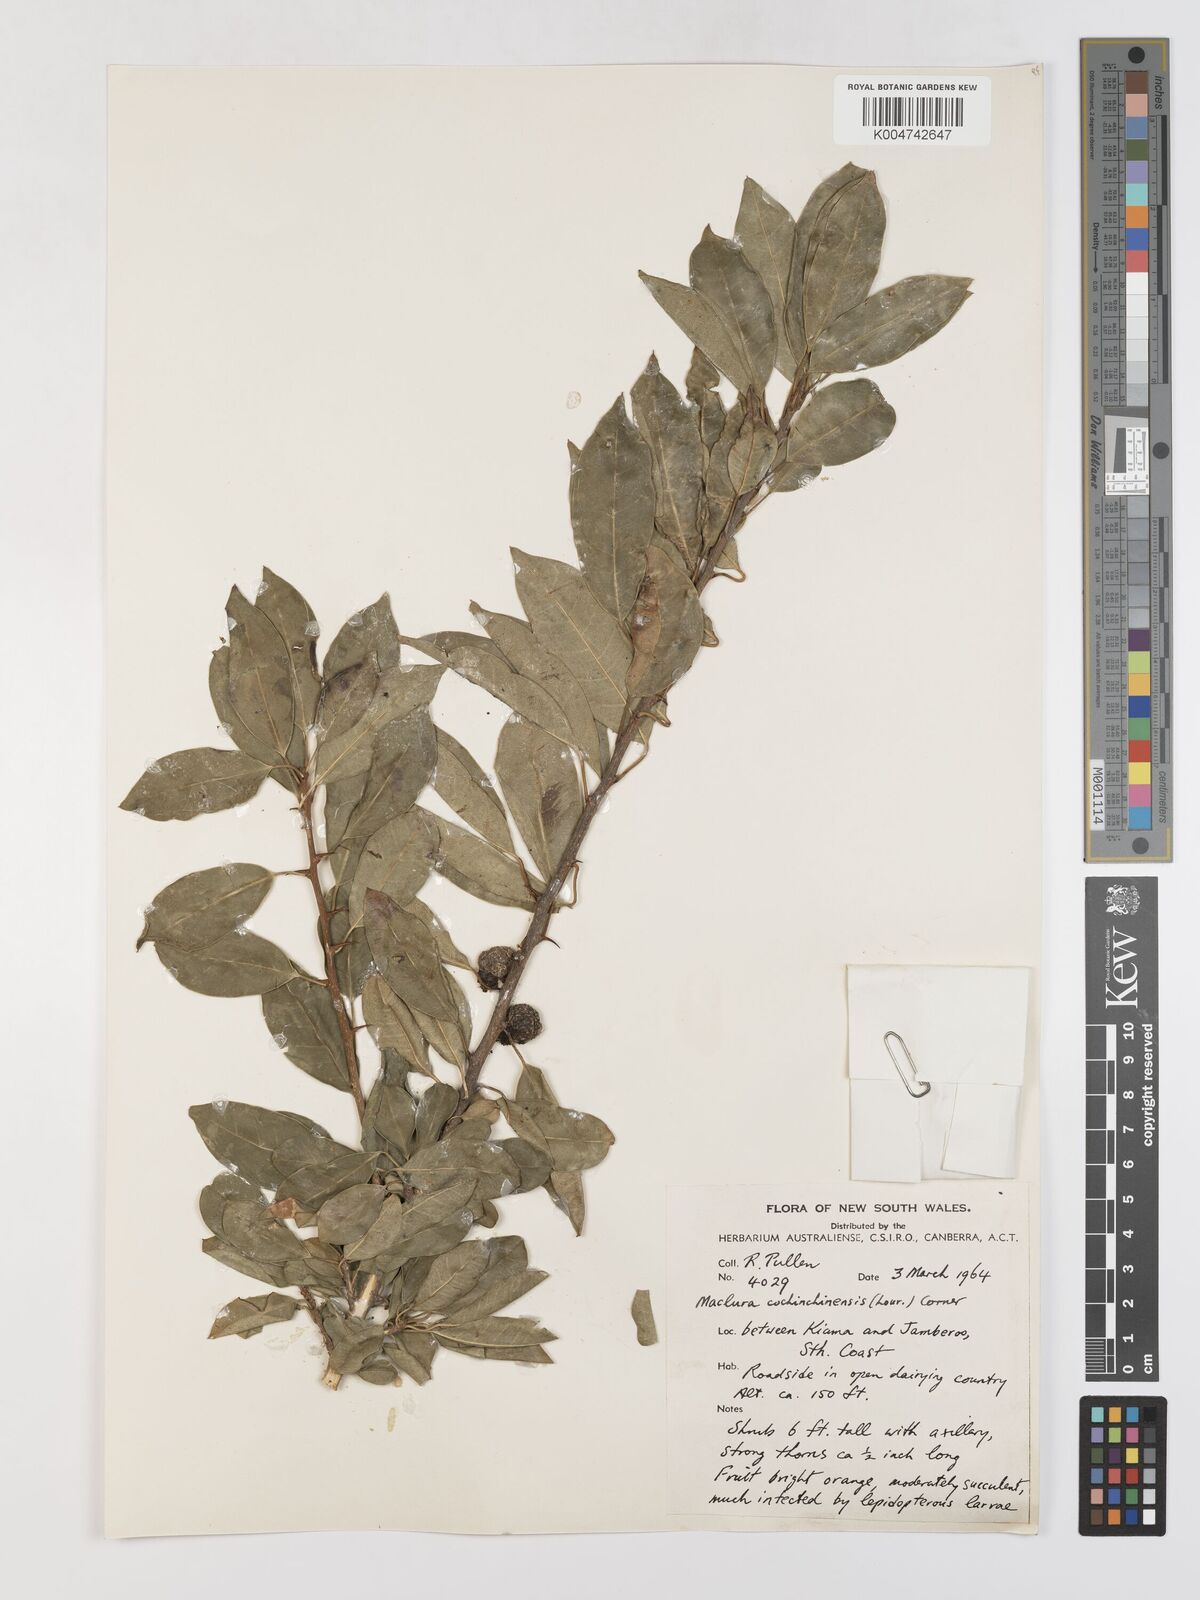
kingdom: Plantae
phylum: Tracheophyta
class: Magnoliopsida
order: Rosales
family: Moraceae
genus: Maclura
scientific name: Maclura cochinchinensis
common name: Cockspurthorn
